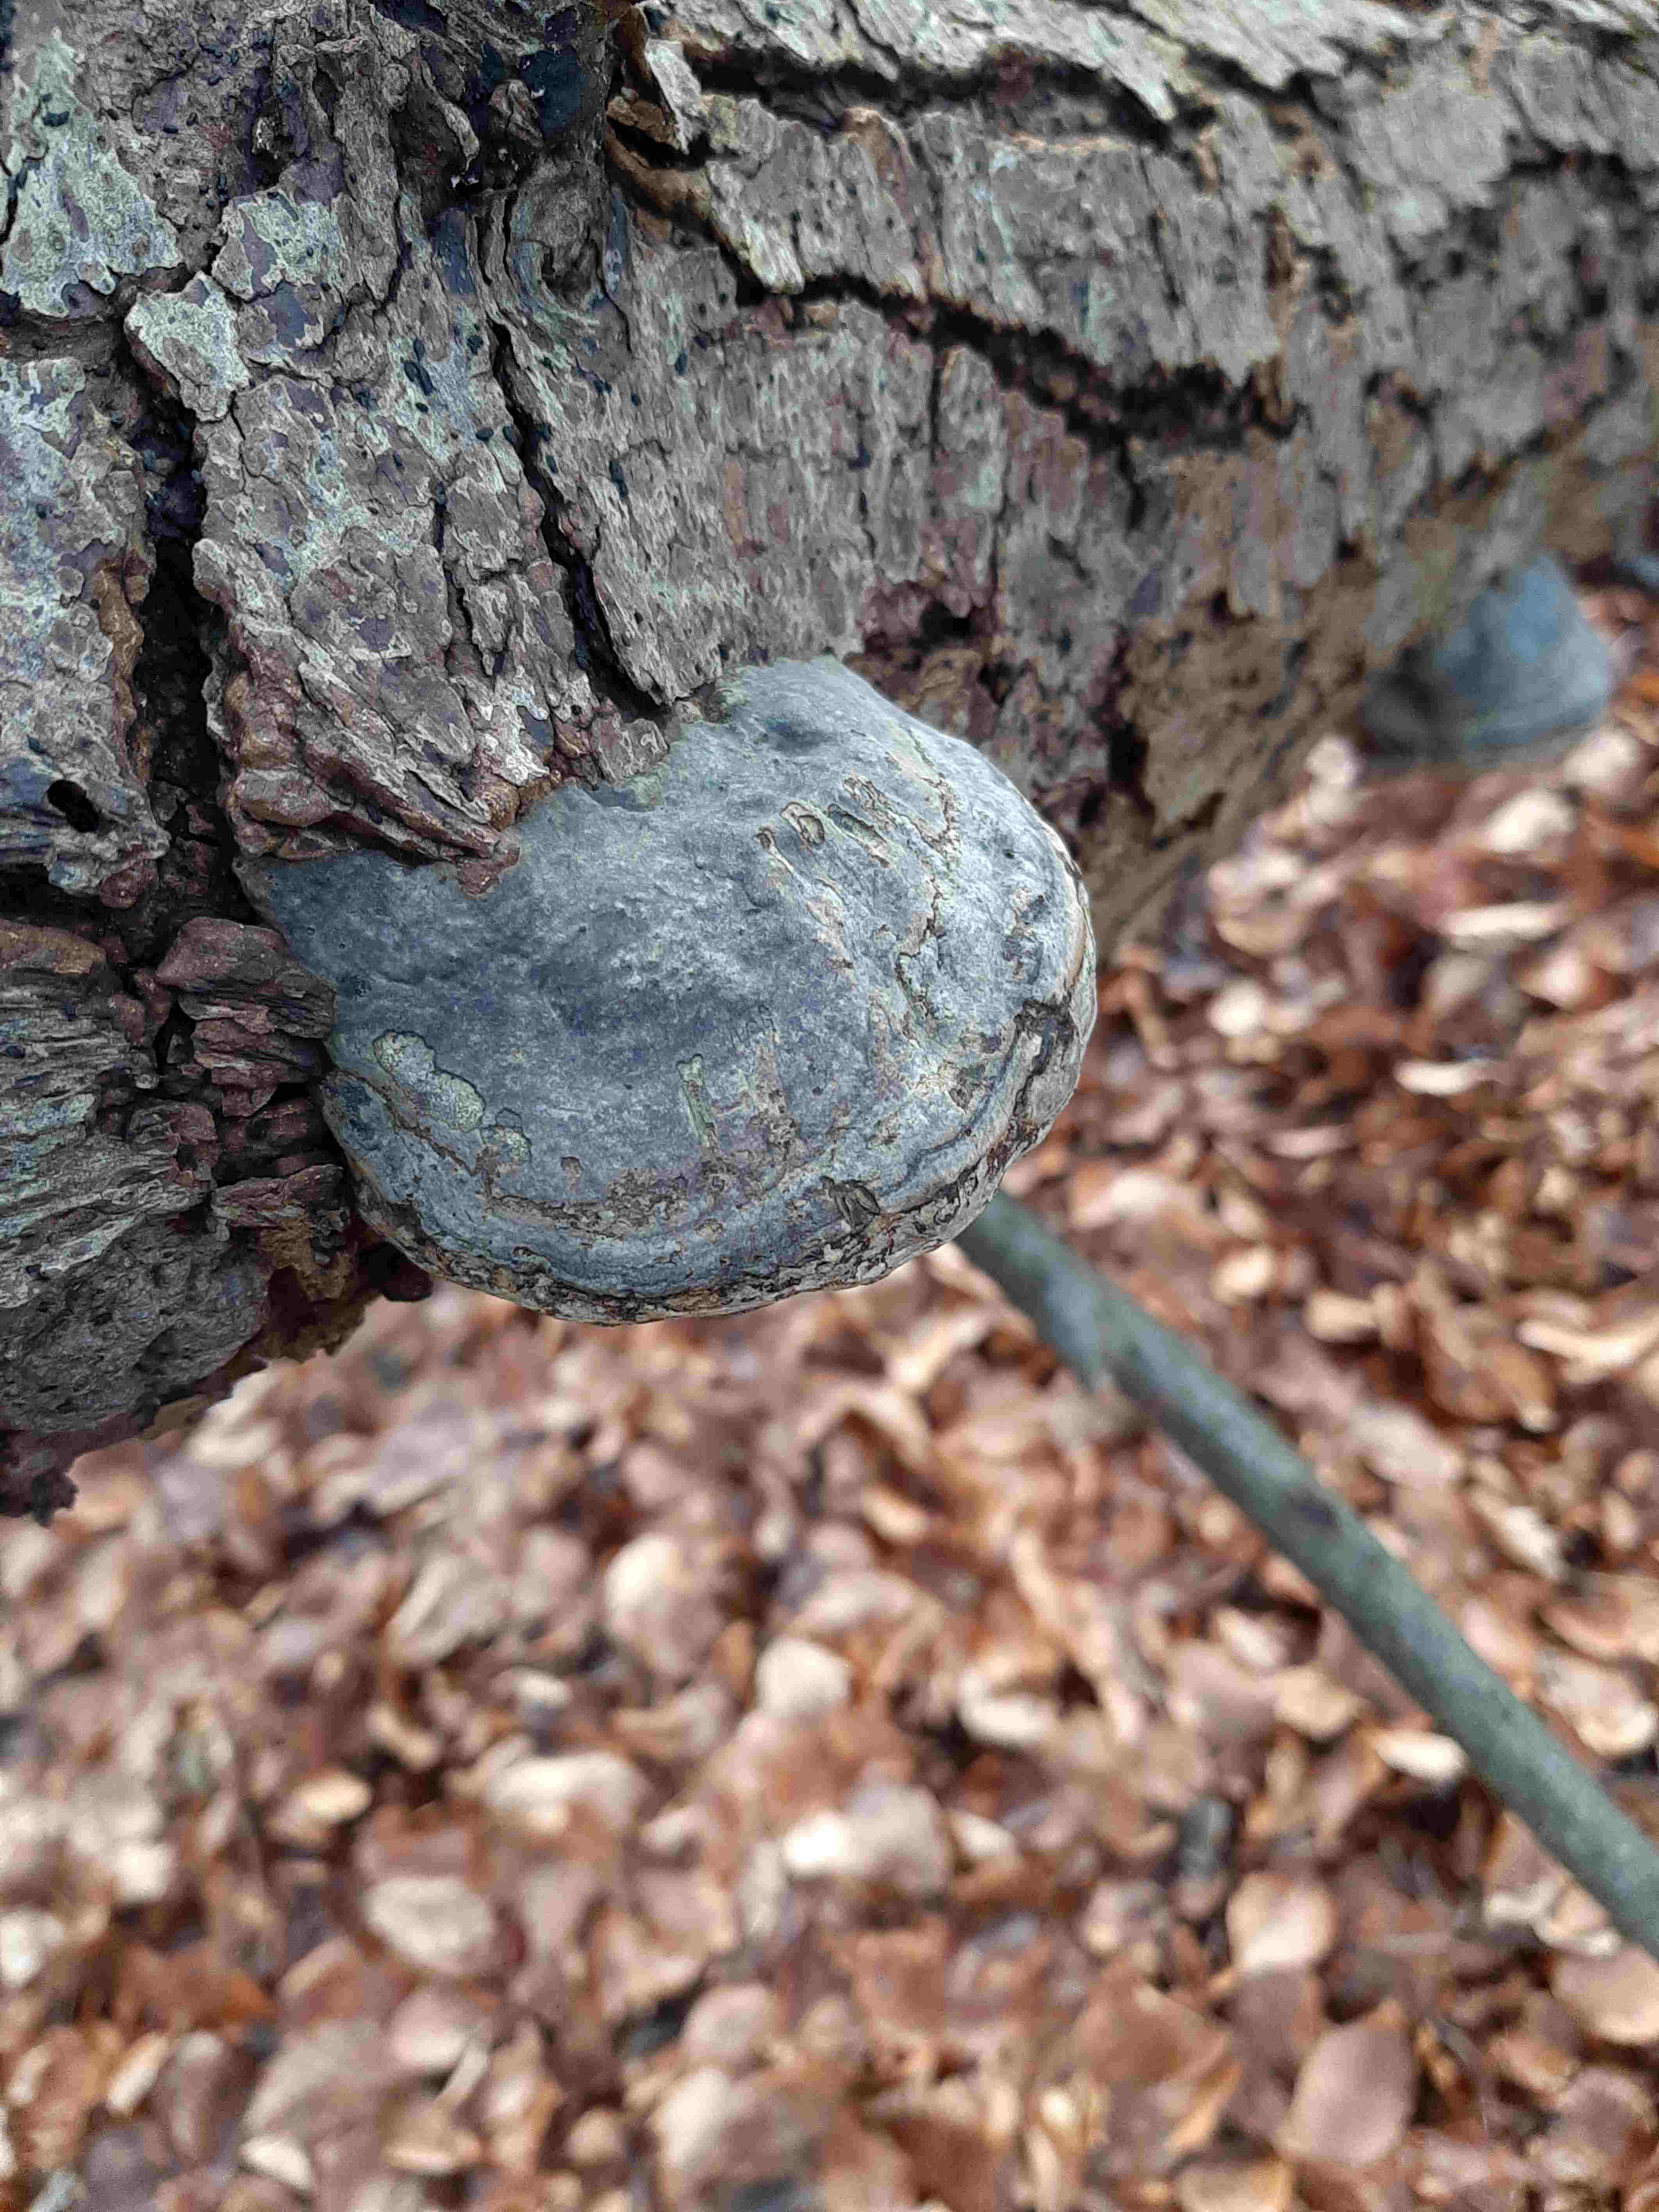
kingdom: Fungi
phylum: Basidiomycota
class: Agaricomycetes
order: Polyporales
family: Polyporaceae
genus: Fomes
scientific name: Fomes fomentarius
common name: tøndersvamp
